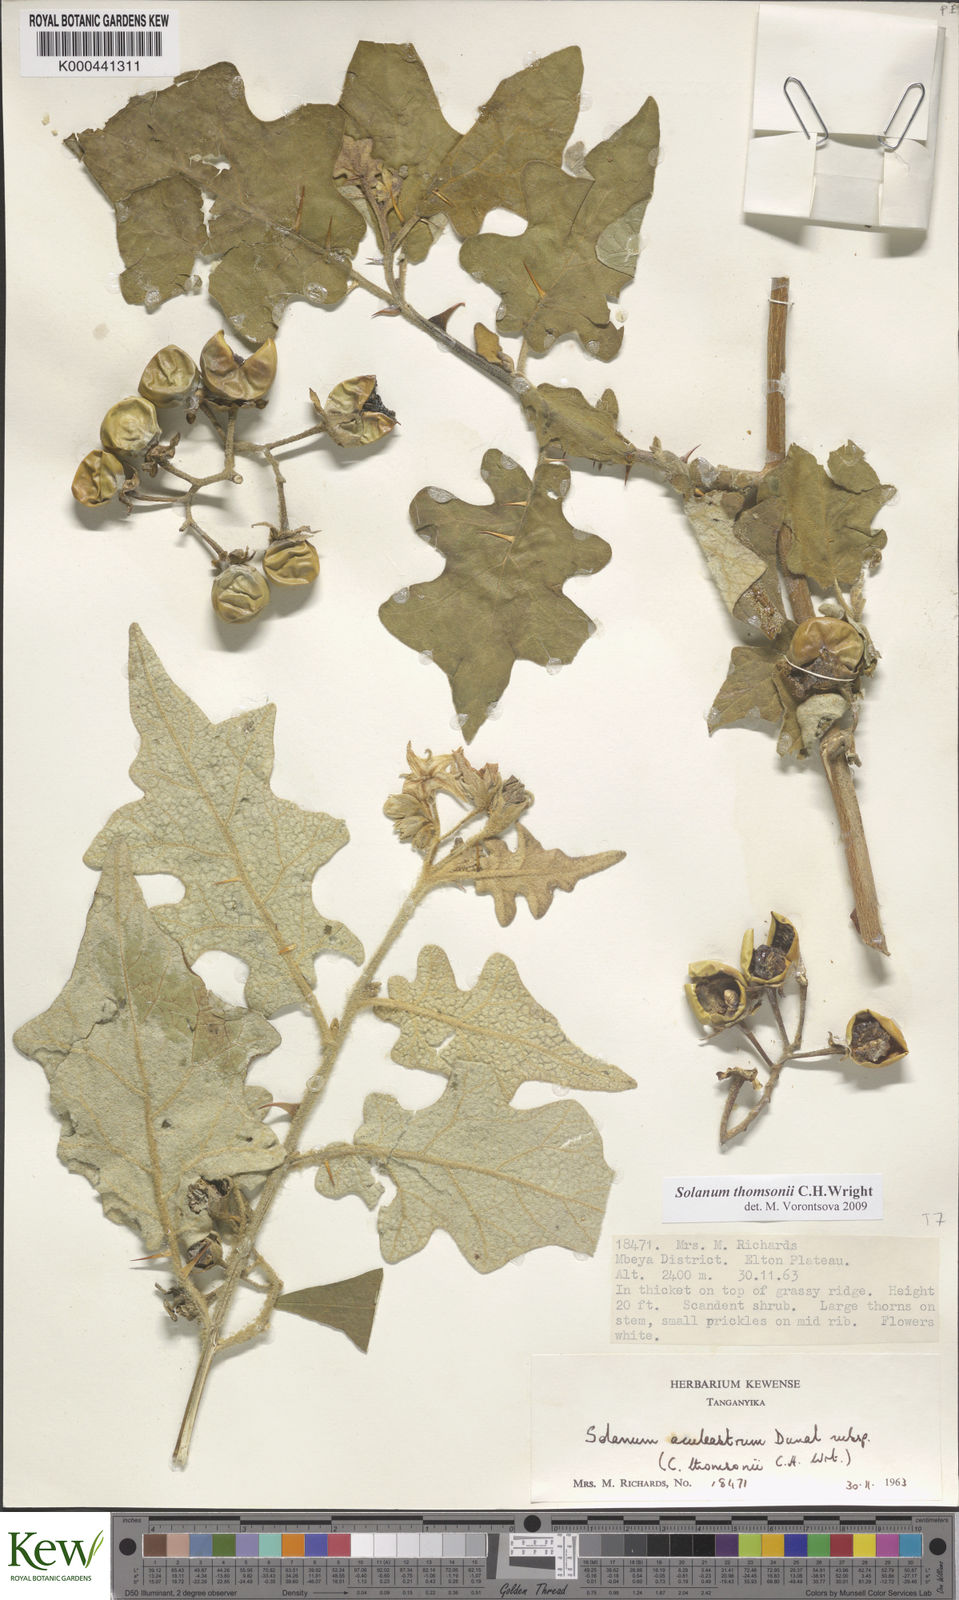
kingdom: Plantae
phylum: Tracheophyta
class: Magnoliopsida
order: Solanales
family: Solanaceae
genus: Solanum
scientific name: Solanum aculeastrum
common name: Goat bitter-apple
